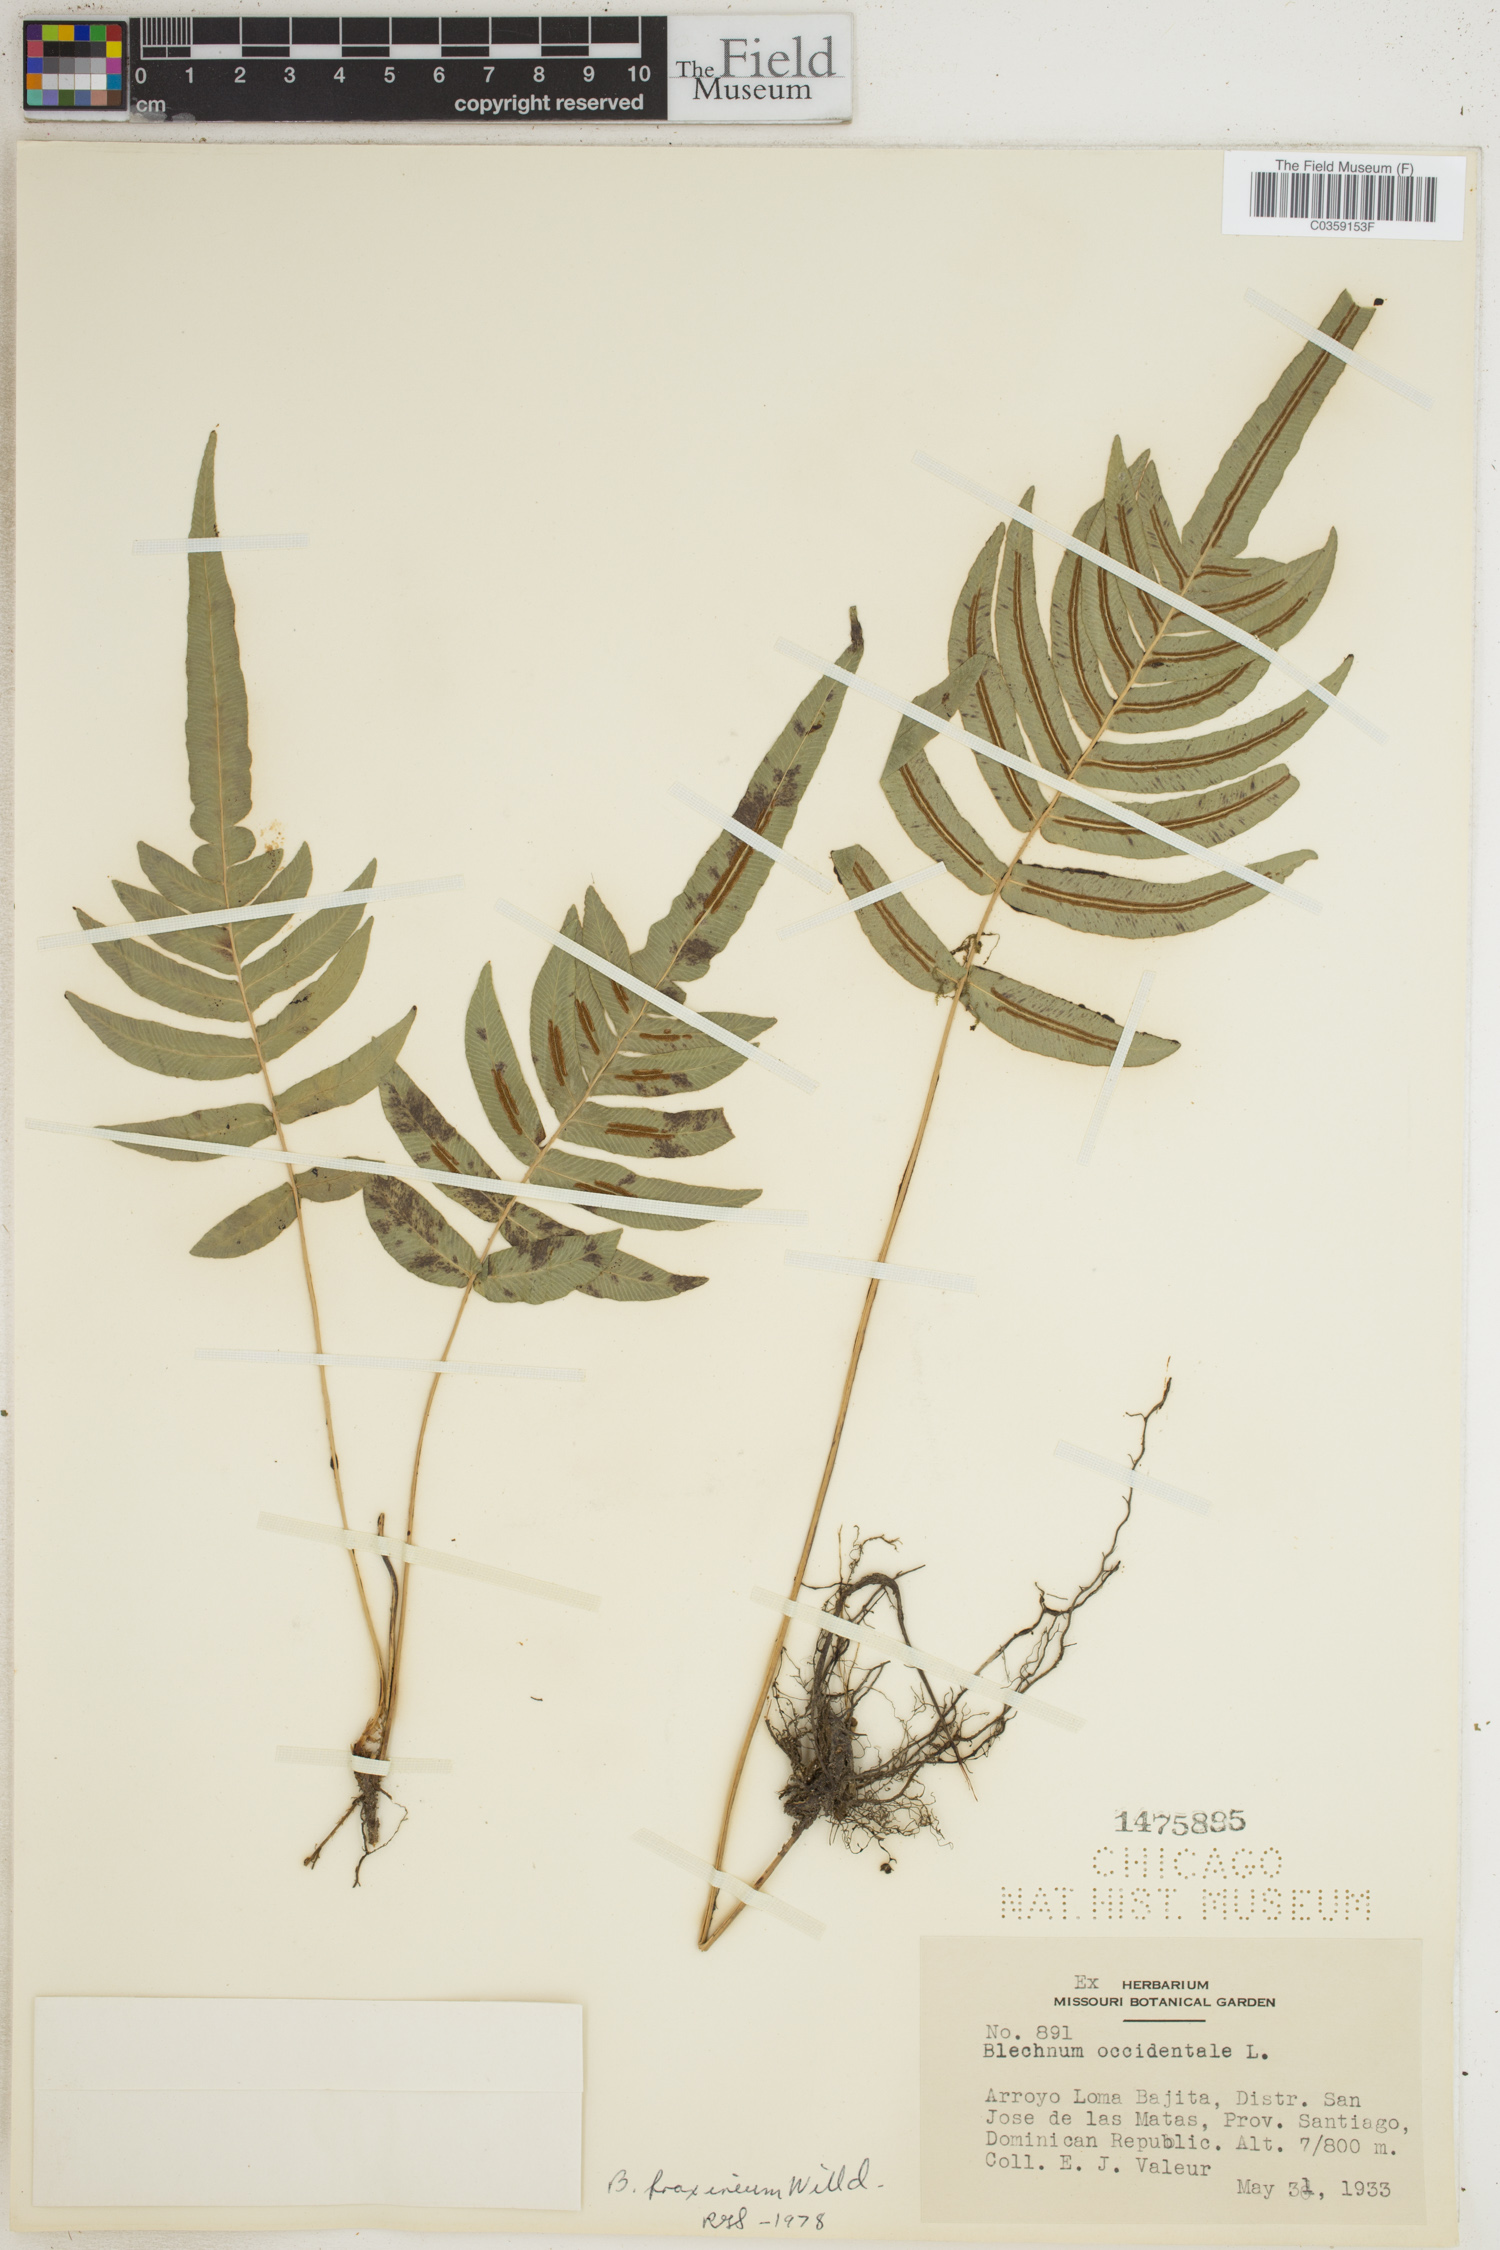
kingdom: Plantae
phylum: Tracheophyta
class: Polypodiopsida
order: Polypodiales
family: Blechnaceae
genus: Blechnum
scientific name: Blechnum gracile
